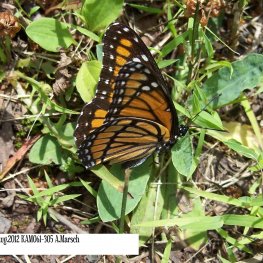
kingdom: Animalia
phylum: Arthropoda
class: Insecta
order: Lepidoptera
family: Nymphalidae
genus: Limenitis
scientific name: Limenitis archippus
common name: Viceroy
